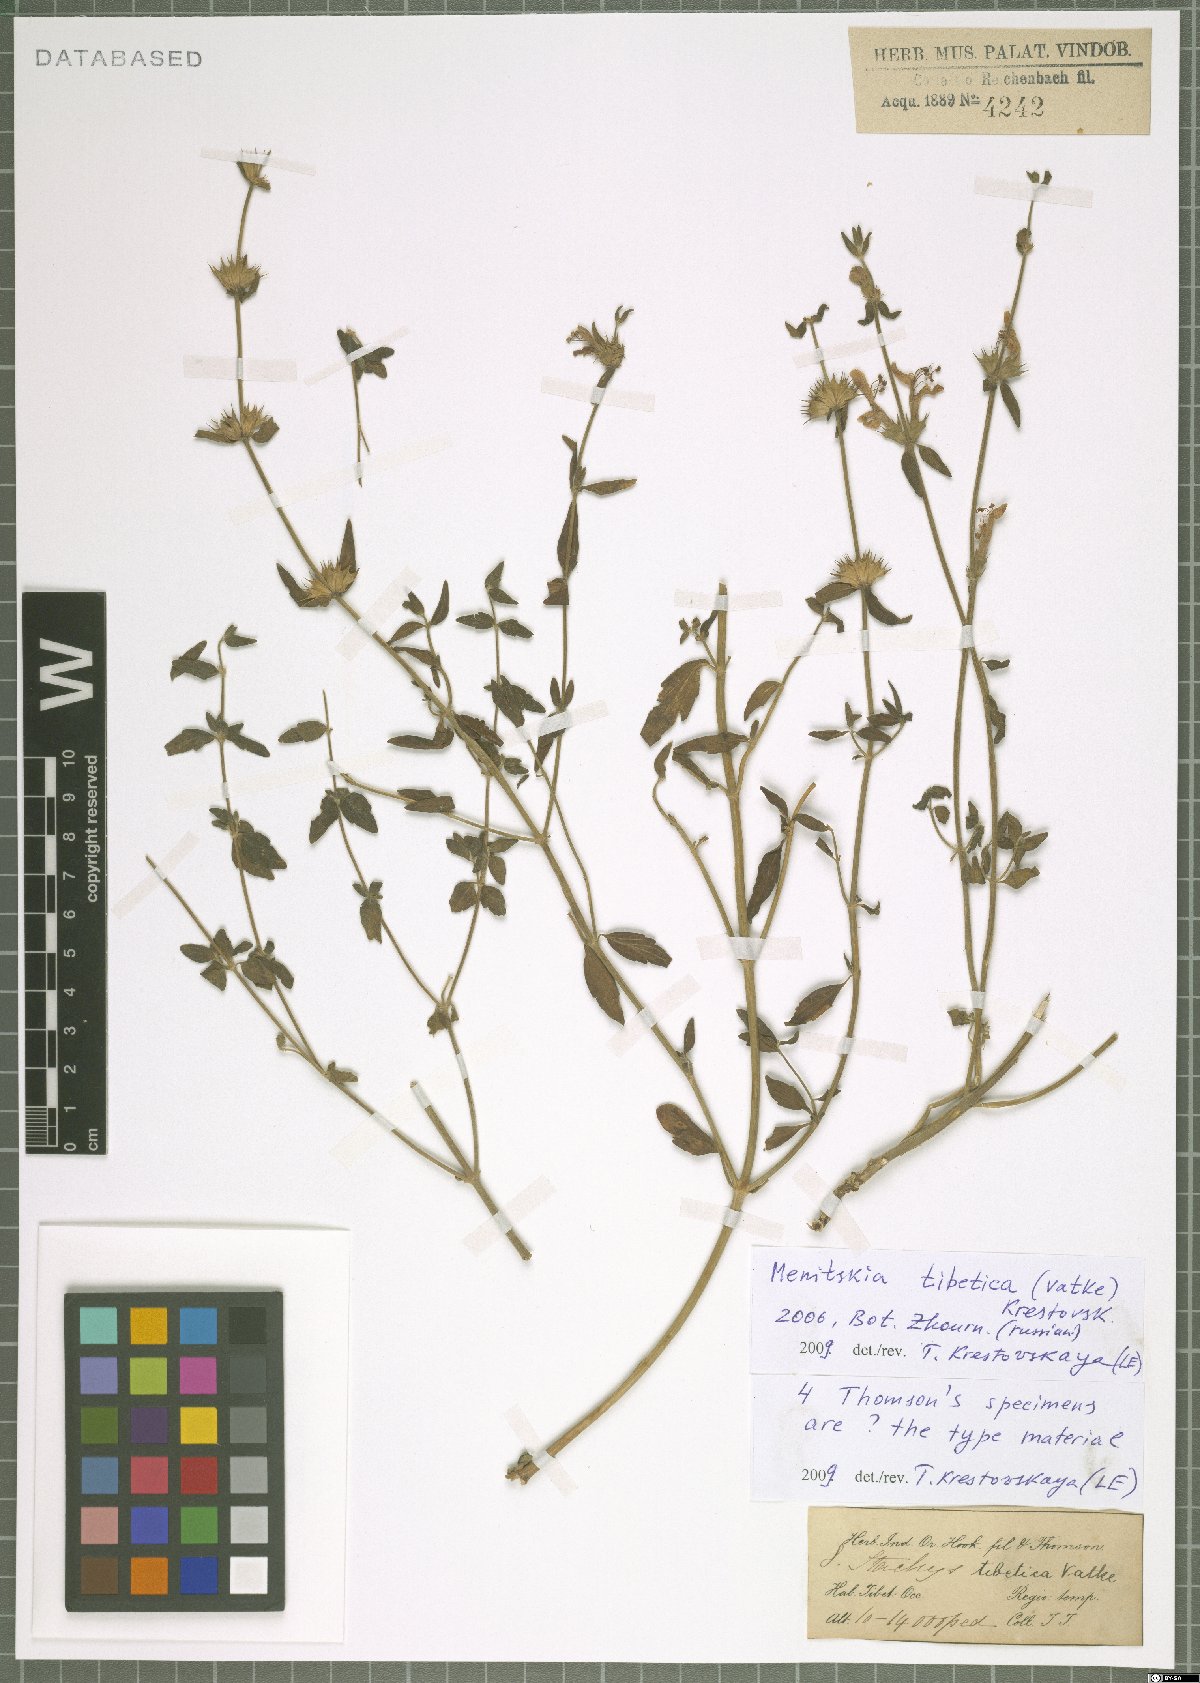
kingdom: Plantae
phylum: Tracheophyta
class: Magnoliopsida
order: Lamiales
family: Lamiaceae
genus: Eriophyton
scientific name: Eriophyton tibeticum
